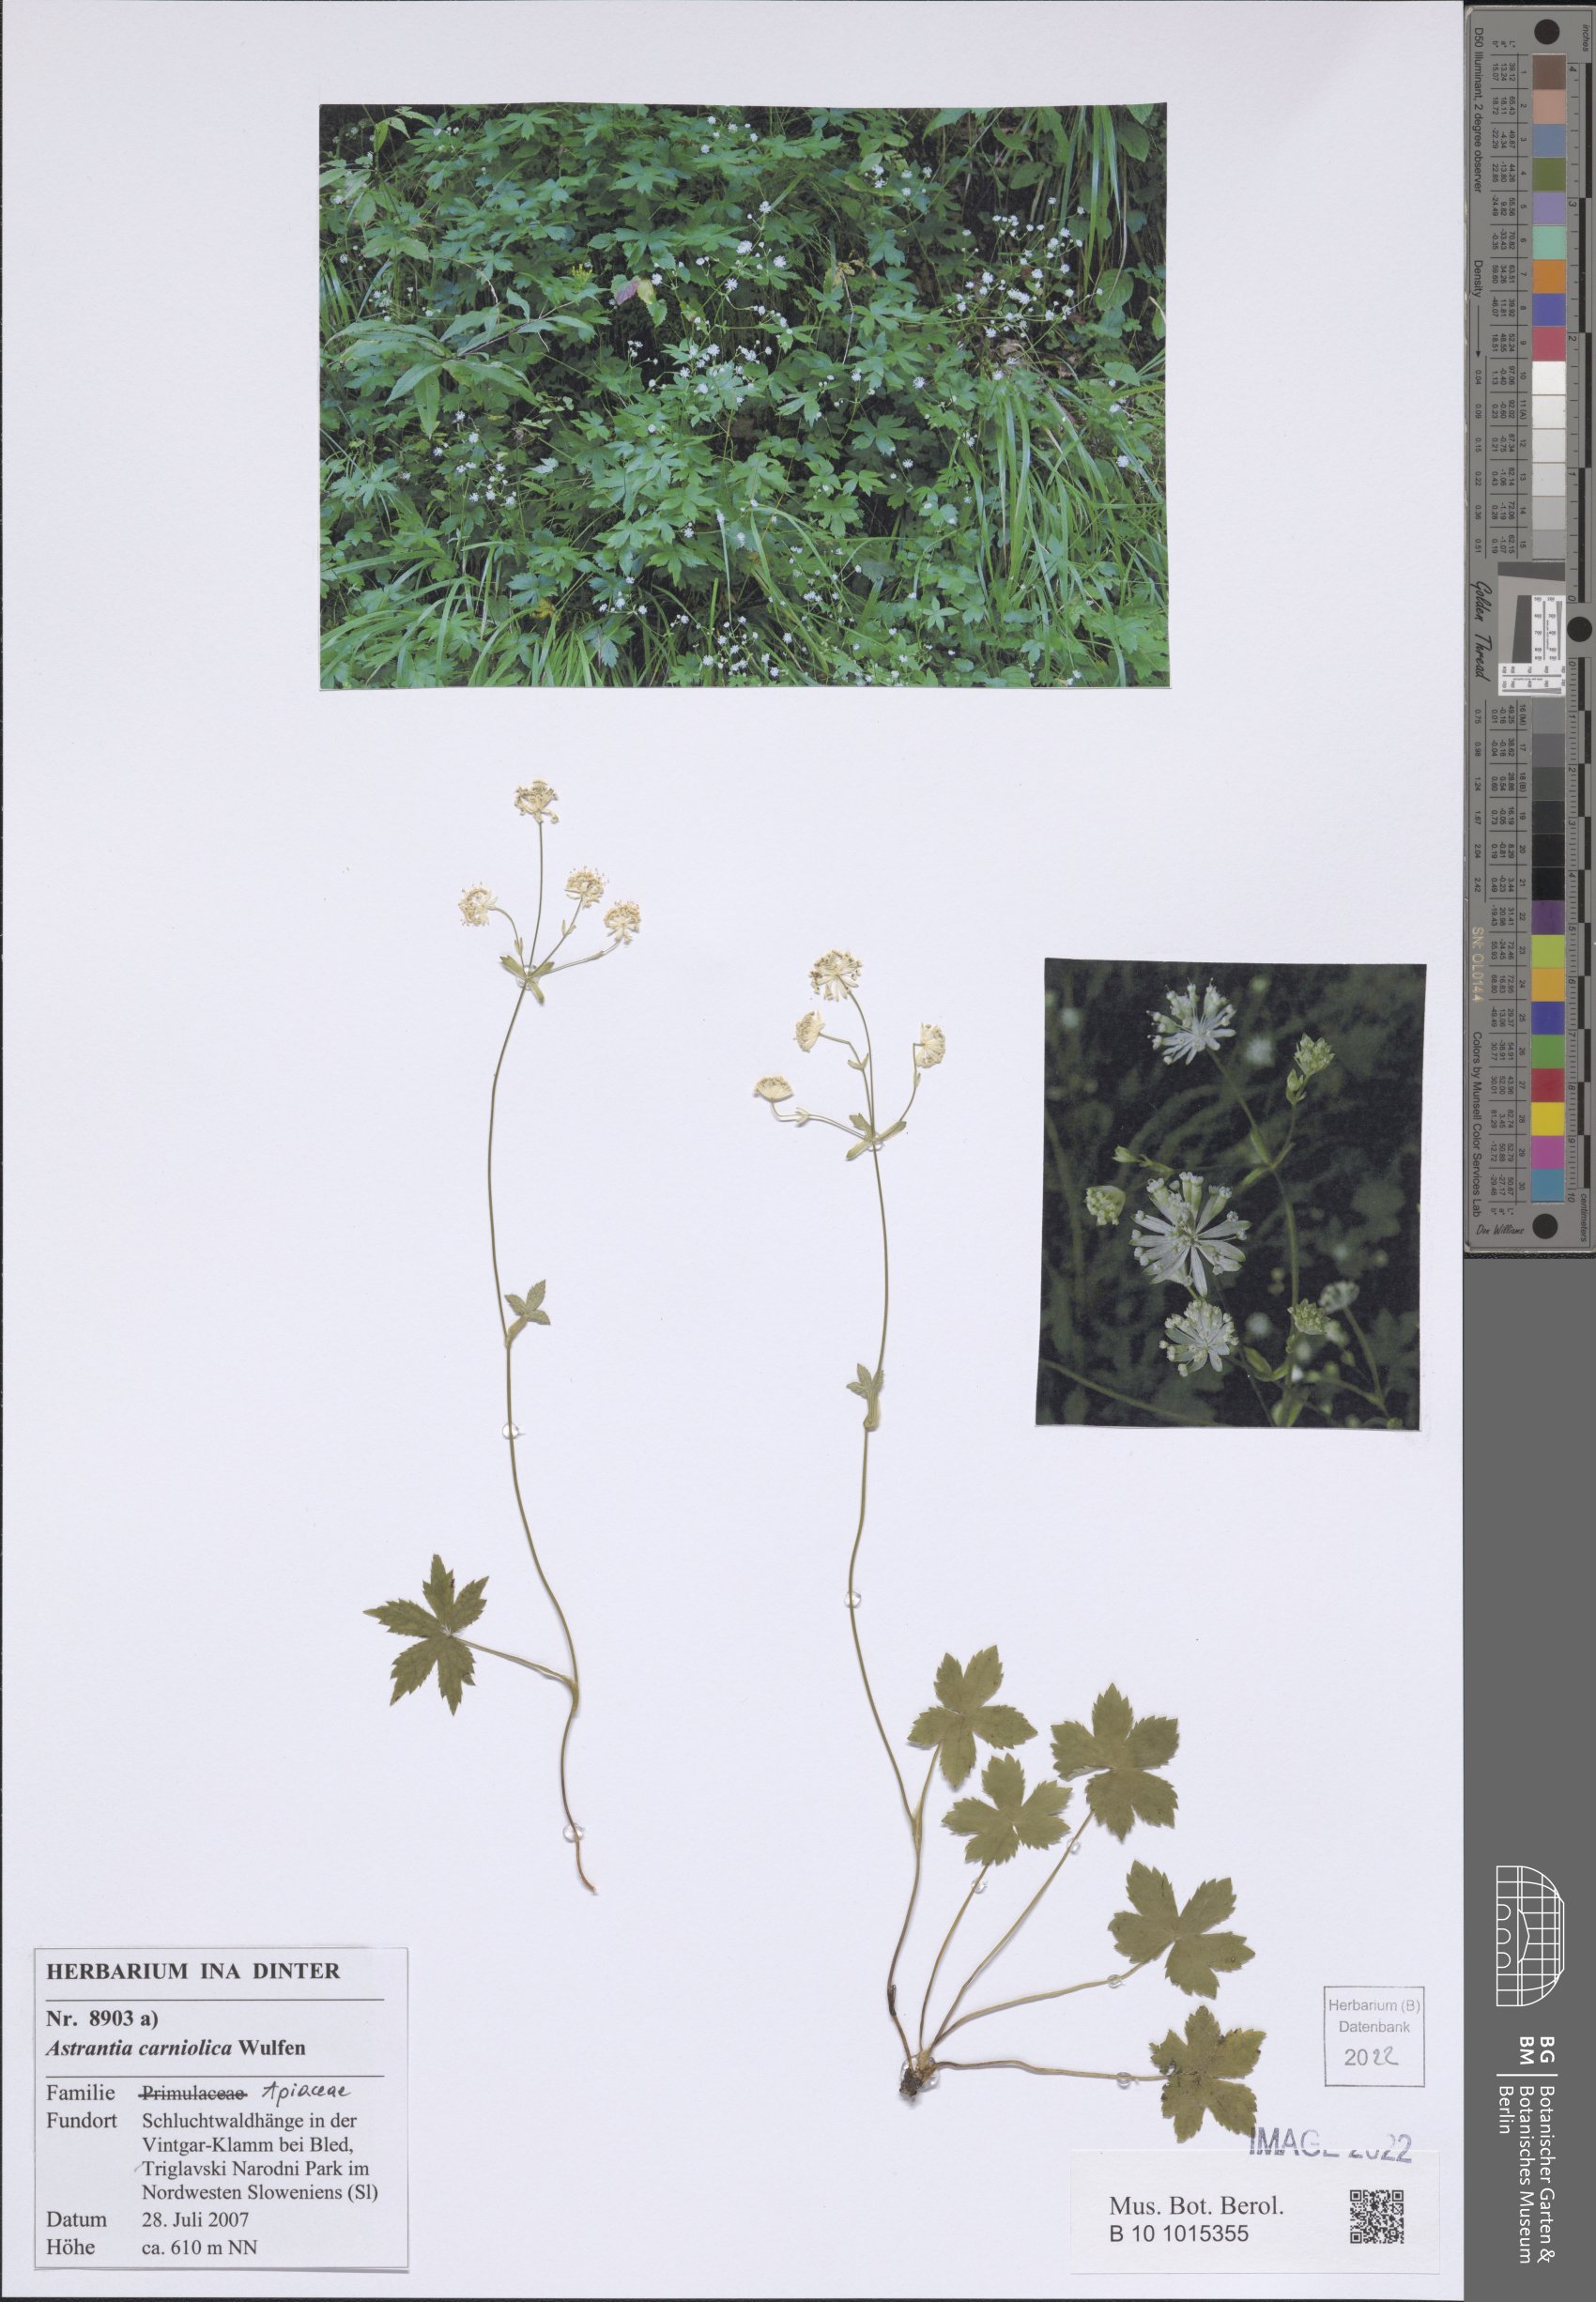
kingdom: Plantae
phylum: Tracheophyta
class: Magnoliopsida
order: Apiales
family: Apiaceae
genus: Astrantia
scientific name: Astrantia carniolica
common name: Carnic masterwort
